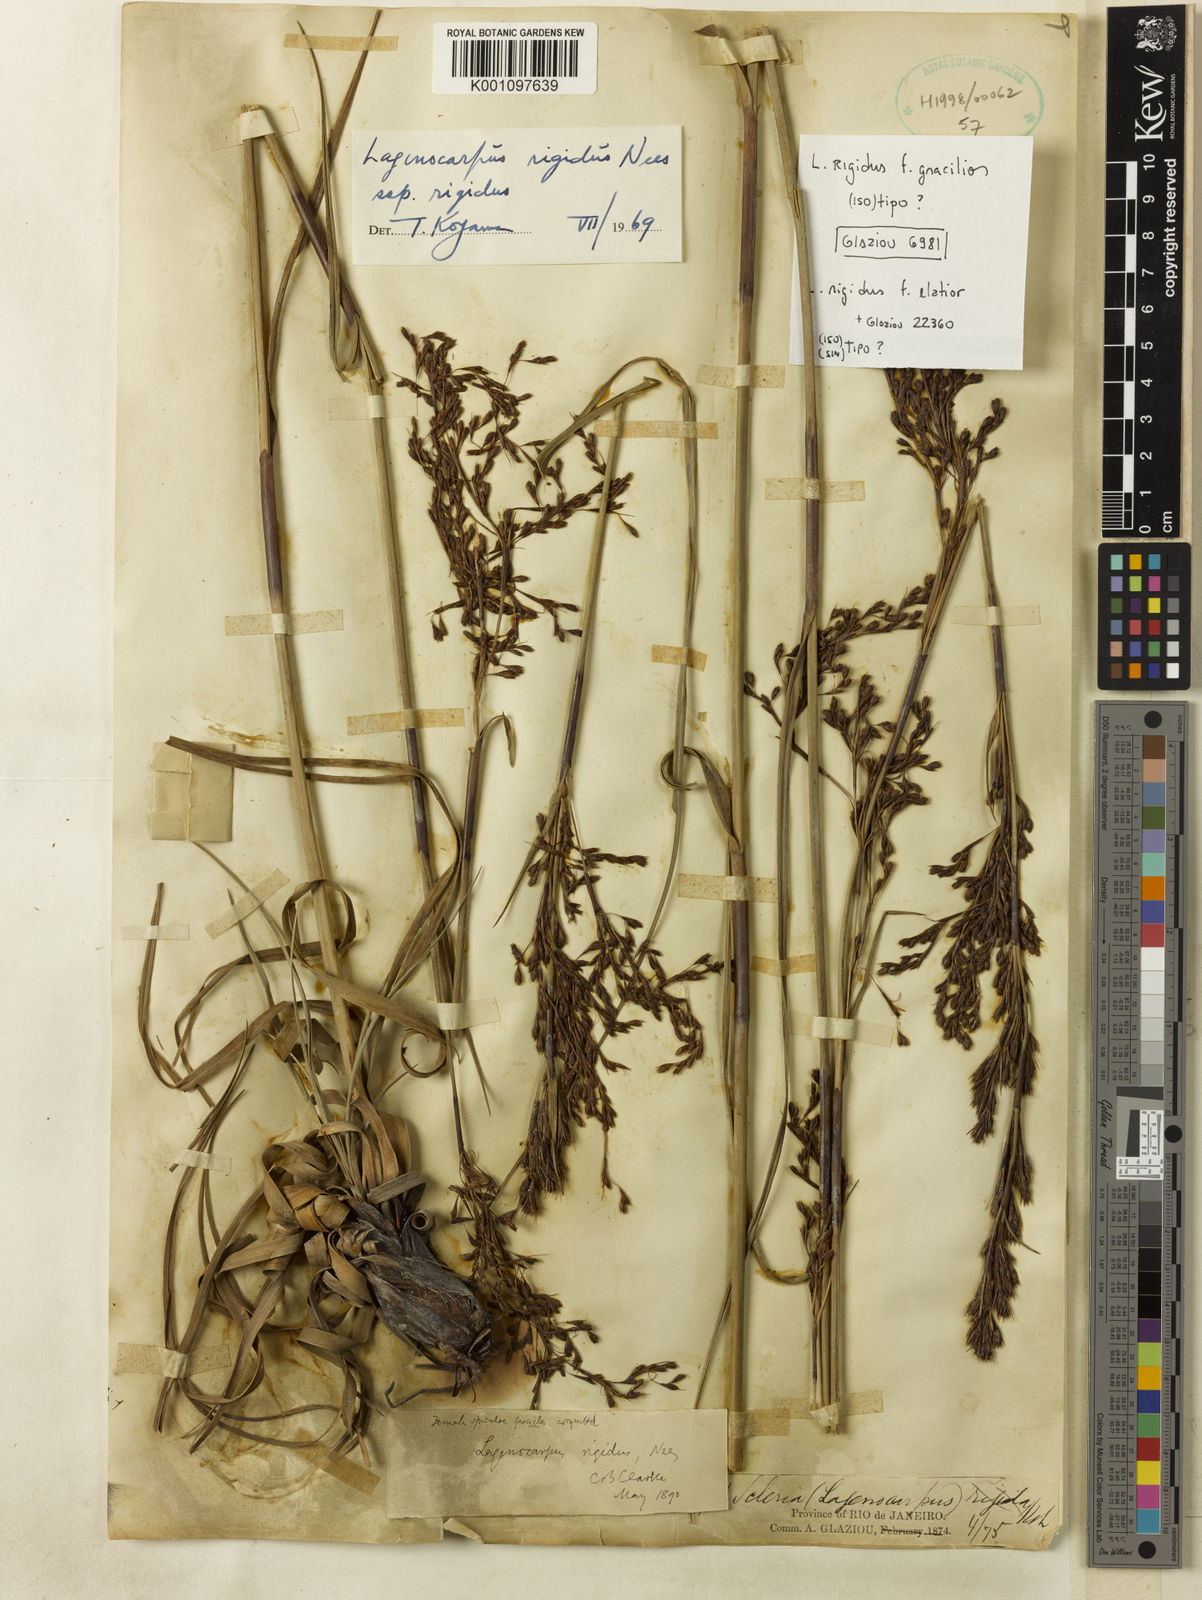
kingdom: Plantae
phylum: Tracheophyta
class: Liliopsida
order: Poales
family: Cyperaceae
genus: Lagenocarpus
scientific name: Lagenocarpus rigidus
